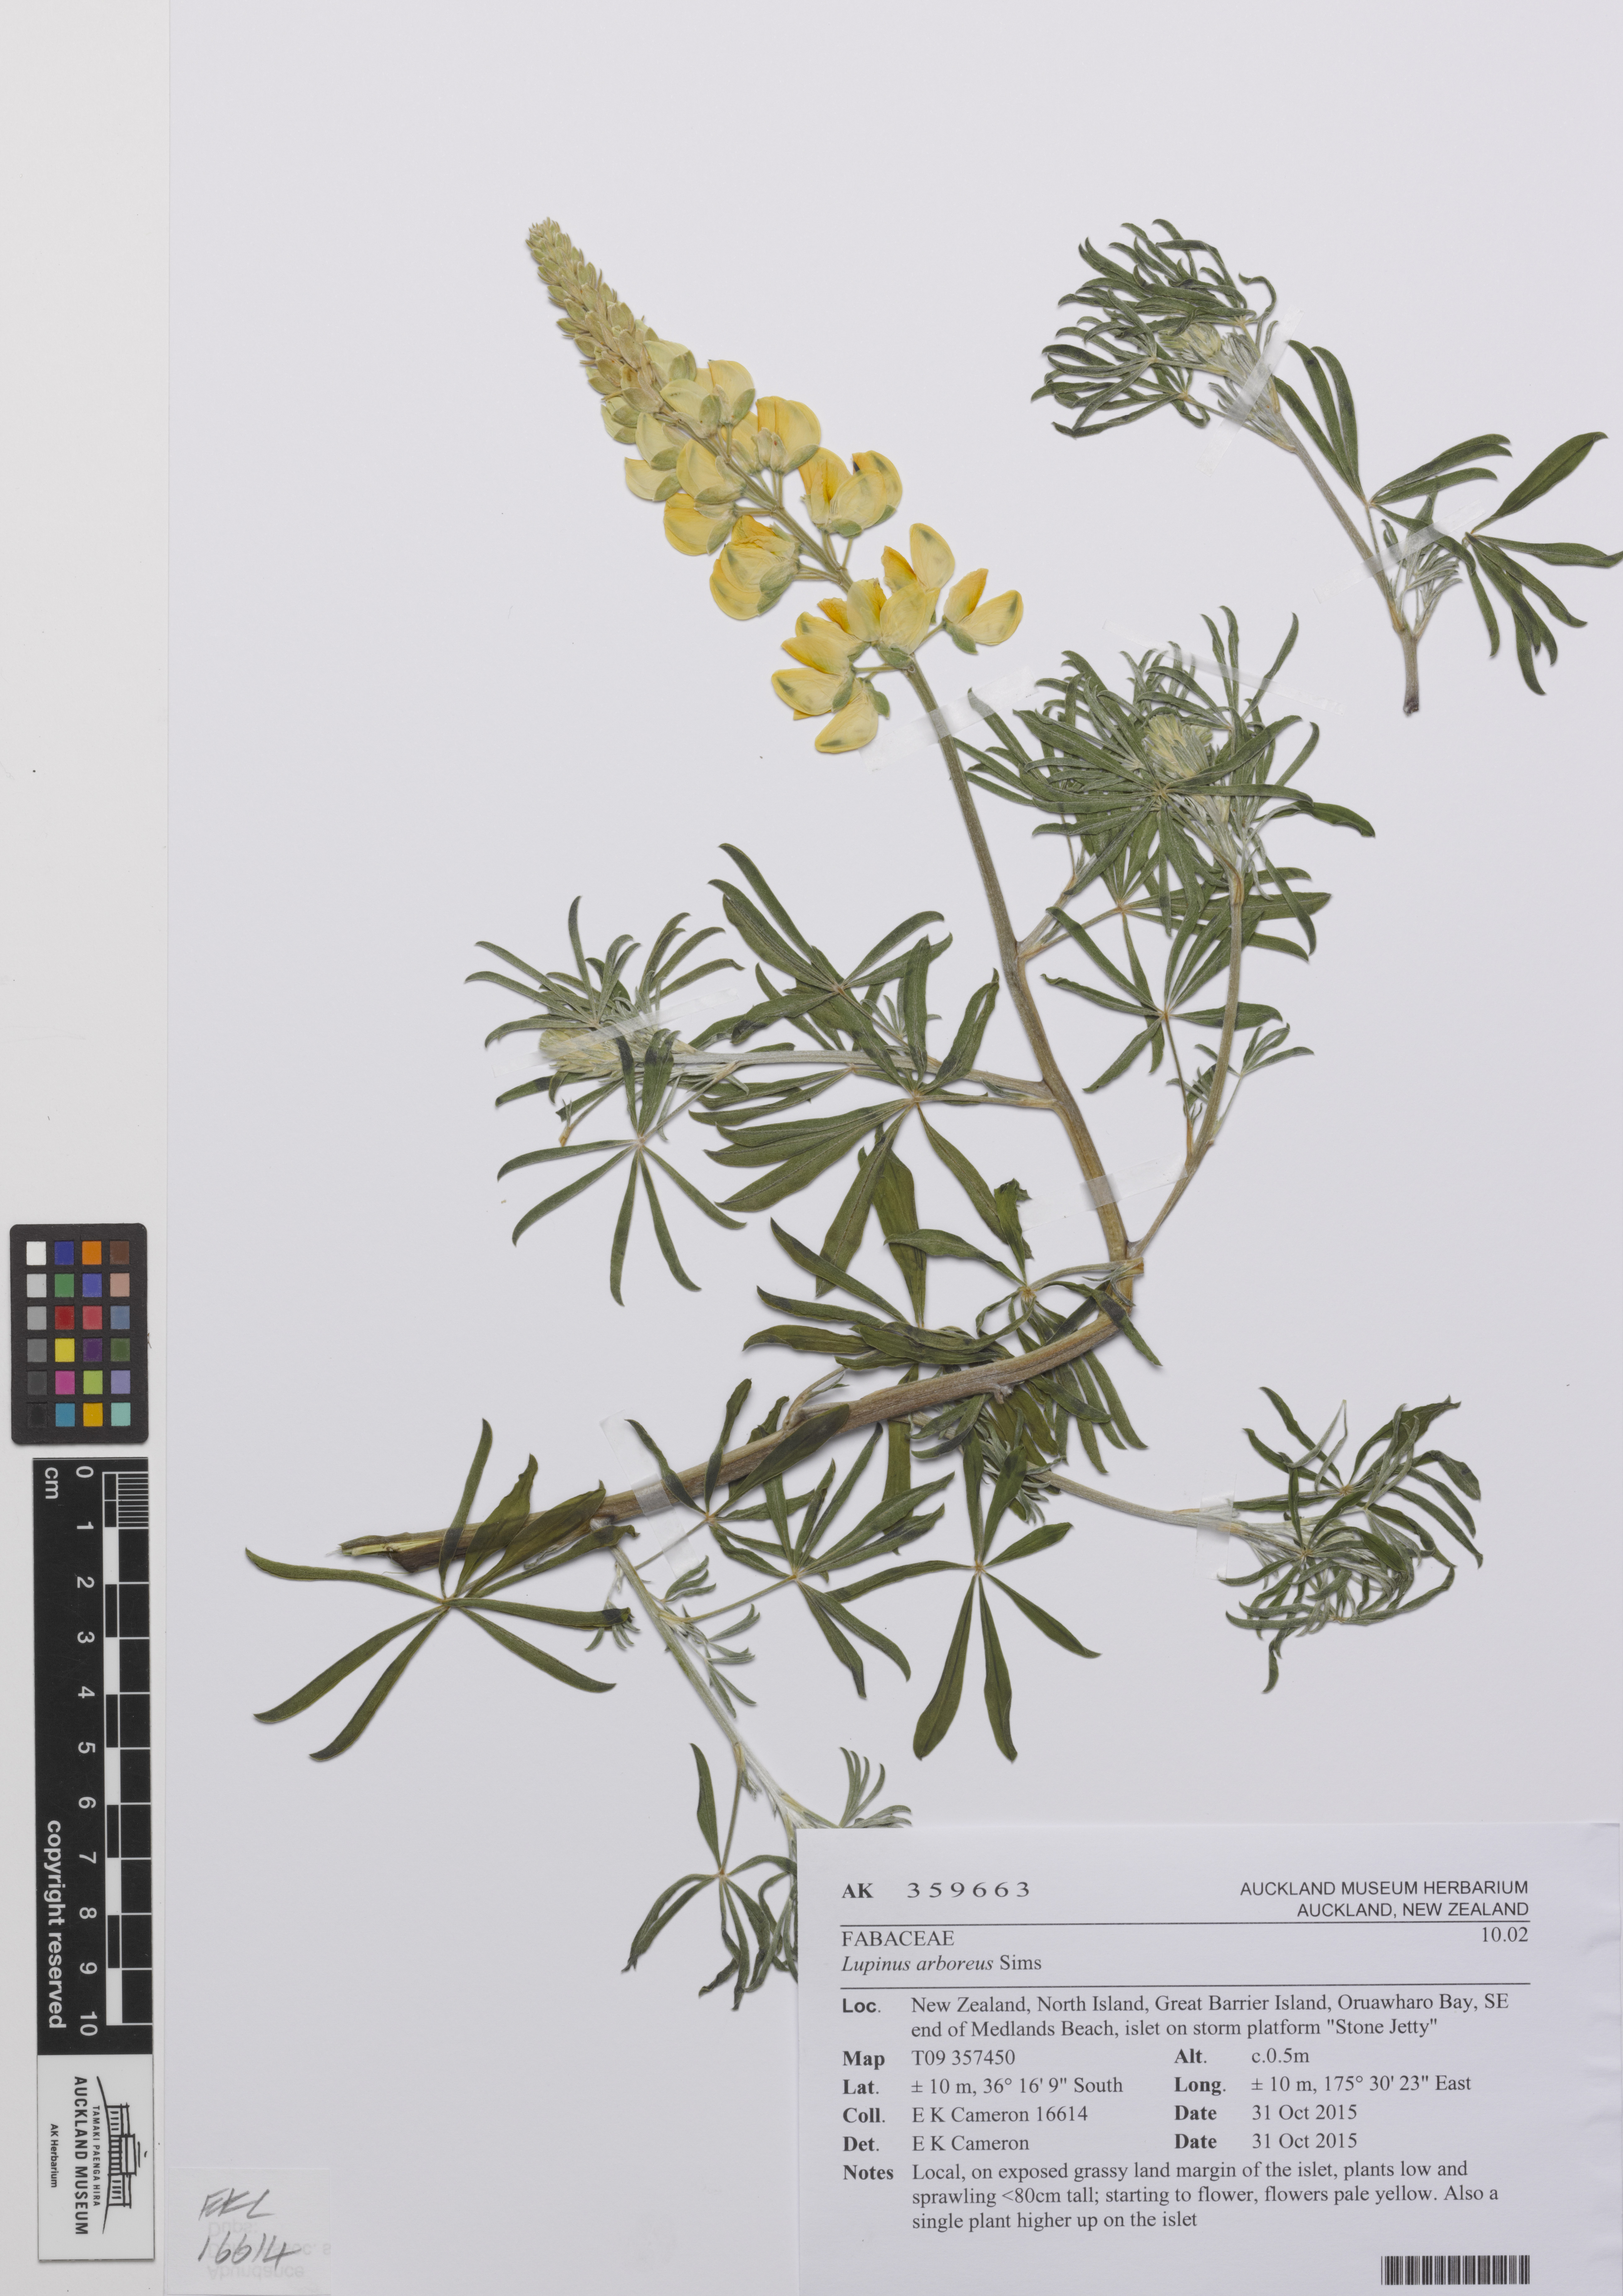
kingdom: Plantae
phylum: Tracheophyta
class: Magnoliopsida
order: Fabales
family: Fabaceae
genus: Lupinus
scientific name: Lupinus arboreus
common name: Yellow bush lupine
